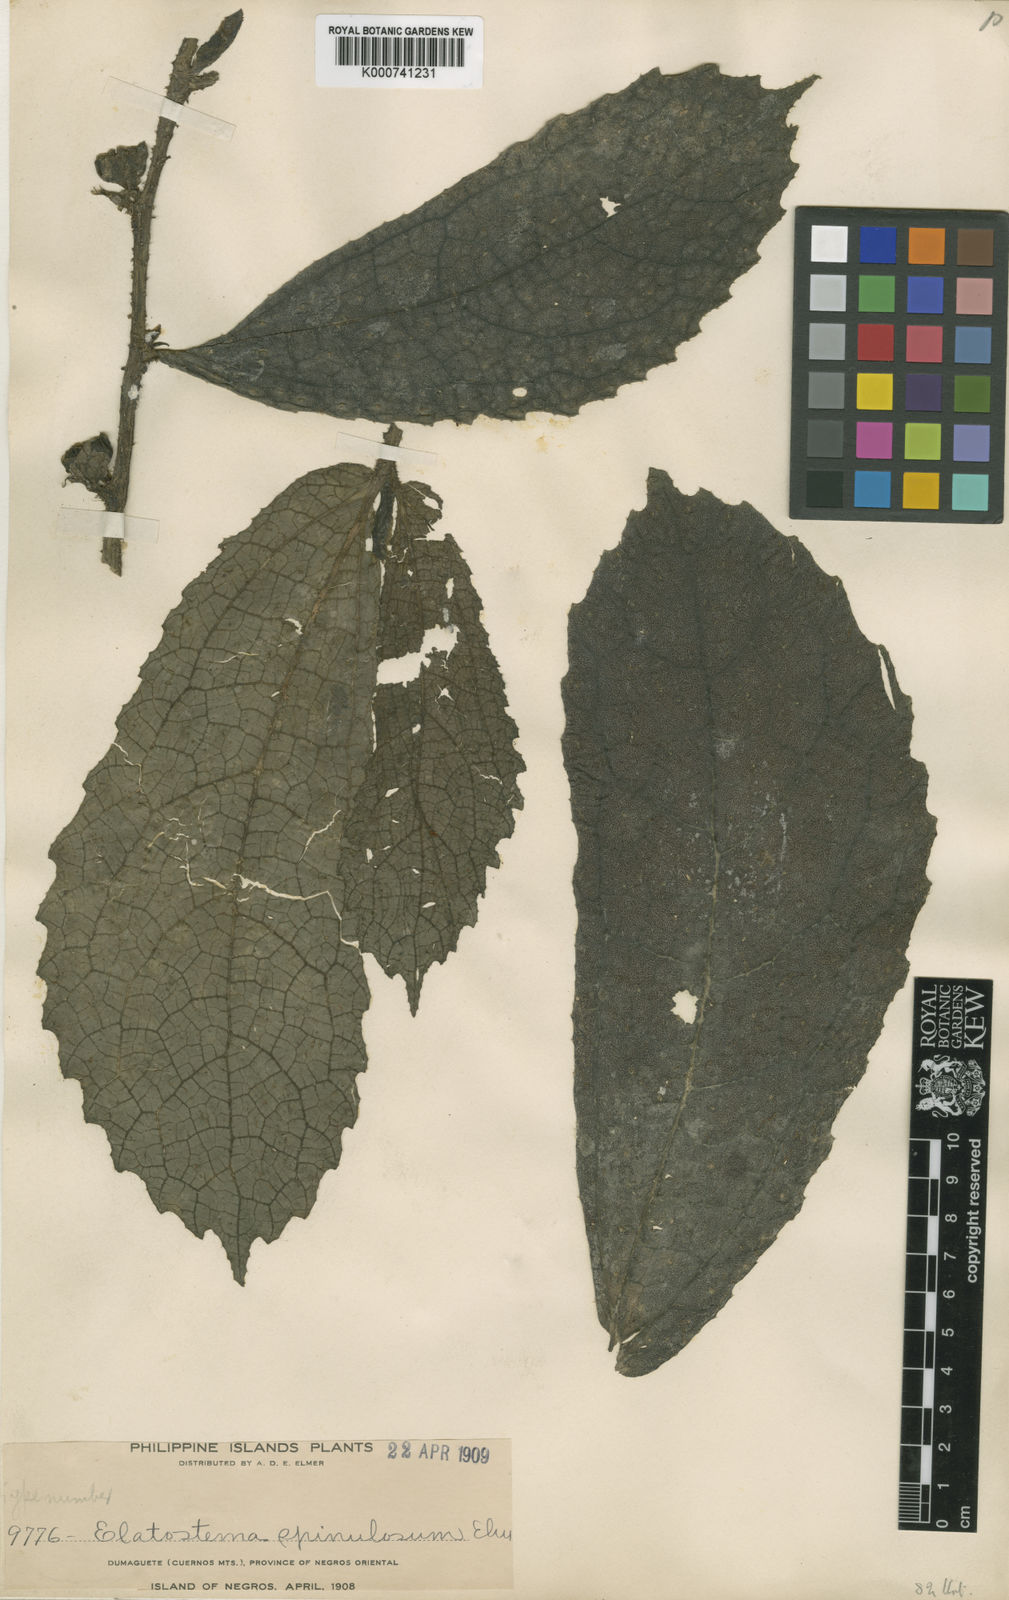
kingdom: Plantae
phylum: Tracheophyta
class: Magnoliopsida
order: Rosales
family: Urticaceae
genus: Elatostema
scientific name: Elatostema spinulosum
